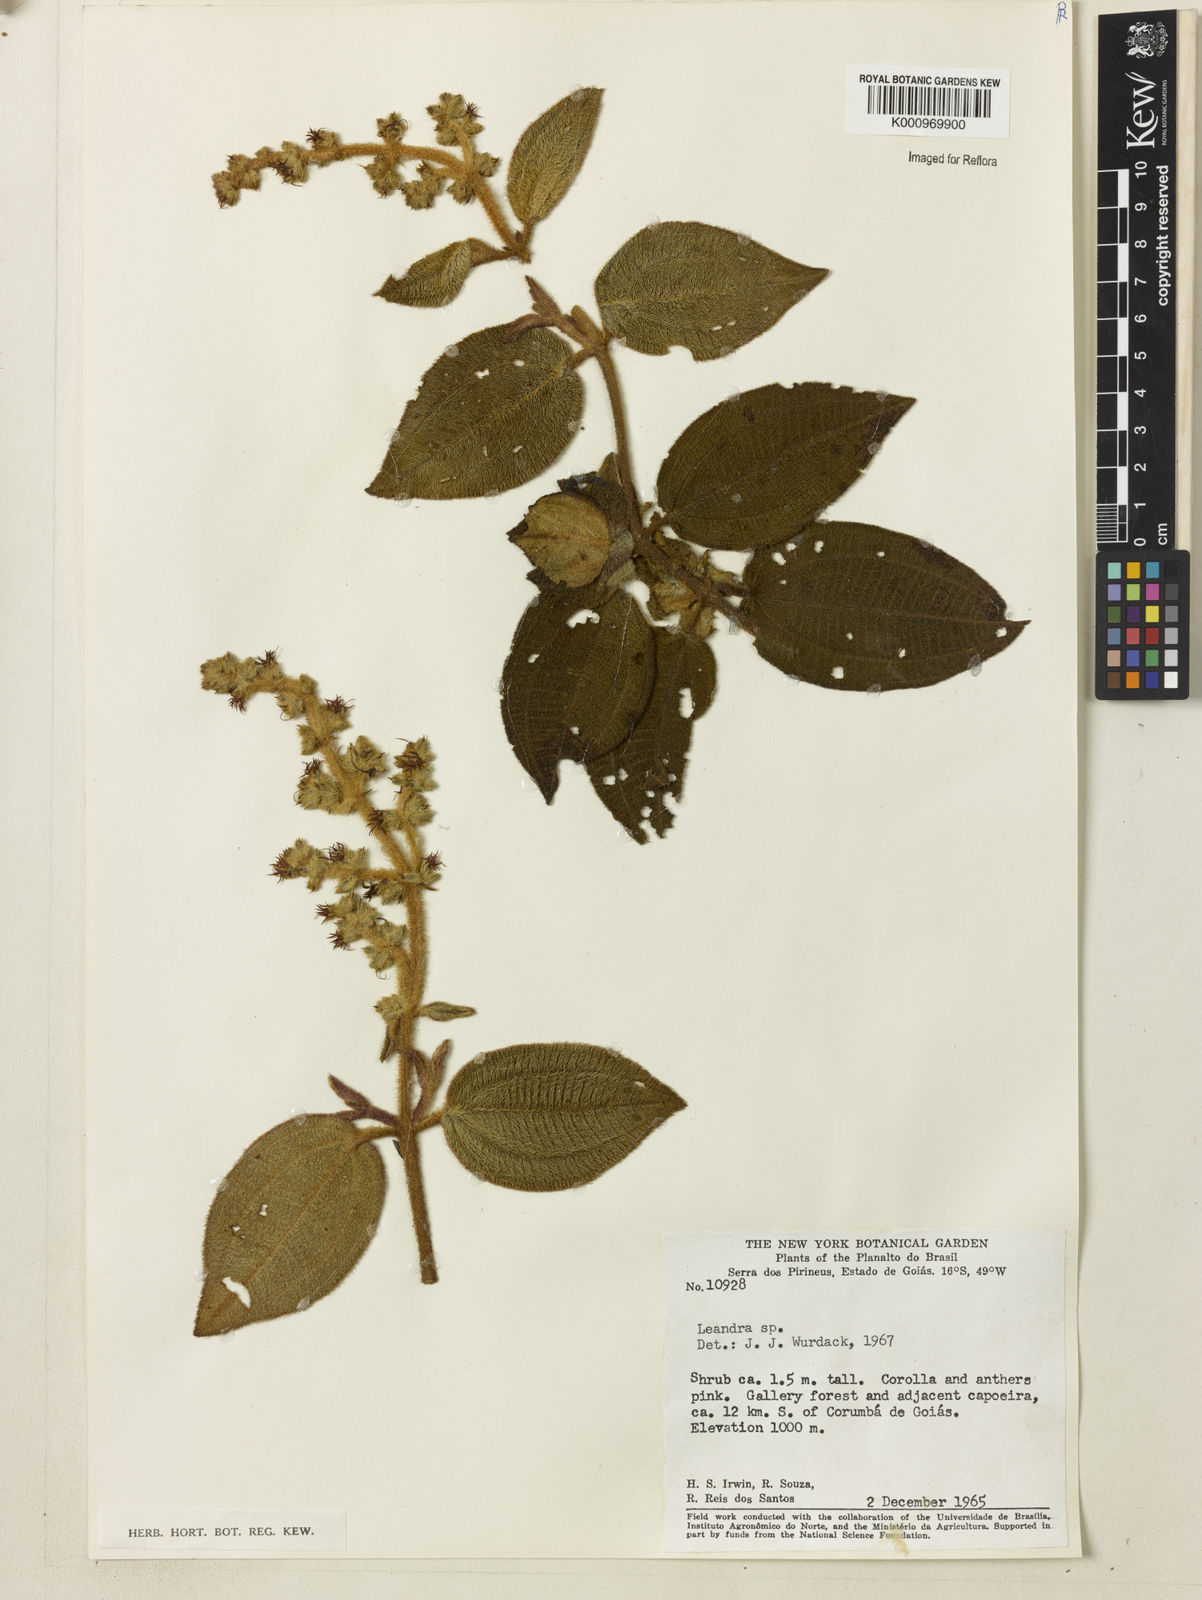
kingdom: Plantae
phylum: Tracheophyta
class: Magnoliopsida
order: Myrtales
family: Melastomataceae
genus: Miconia
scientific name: Miconia
